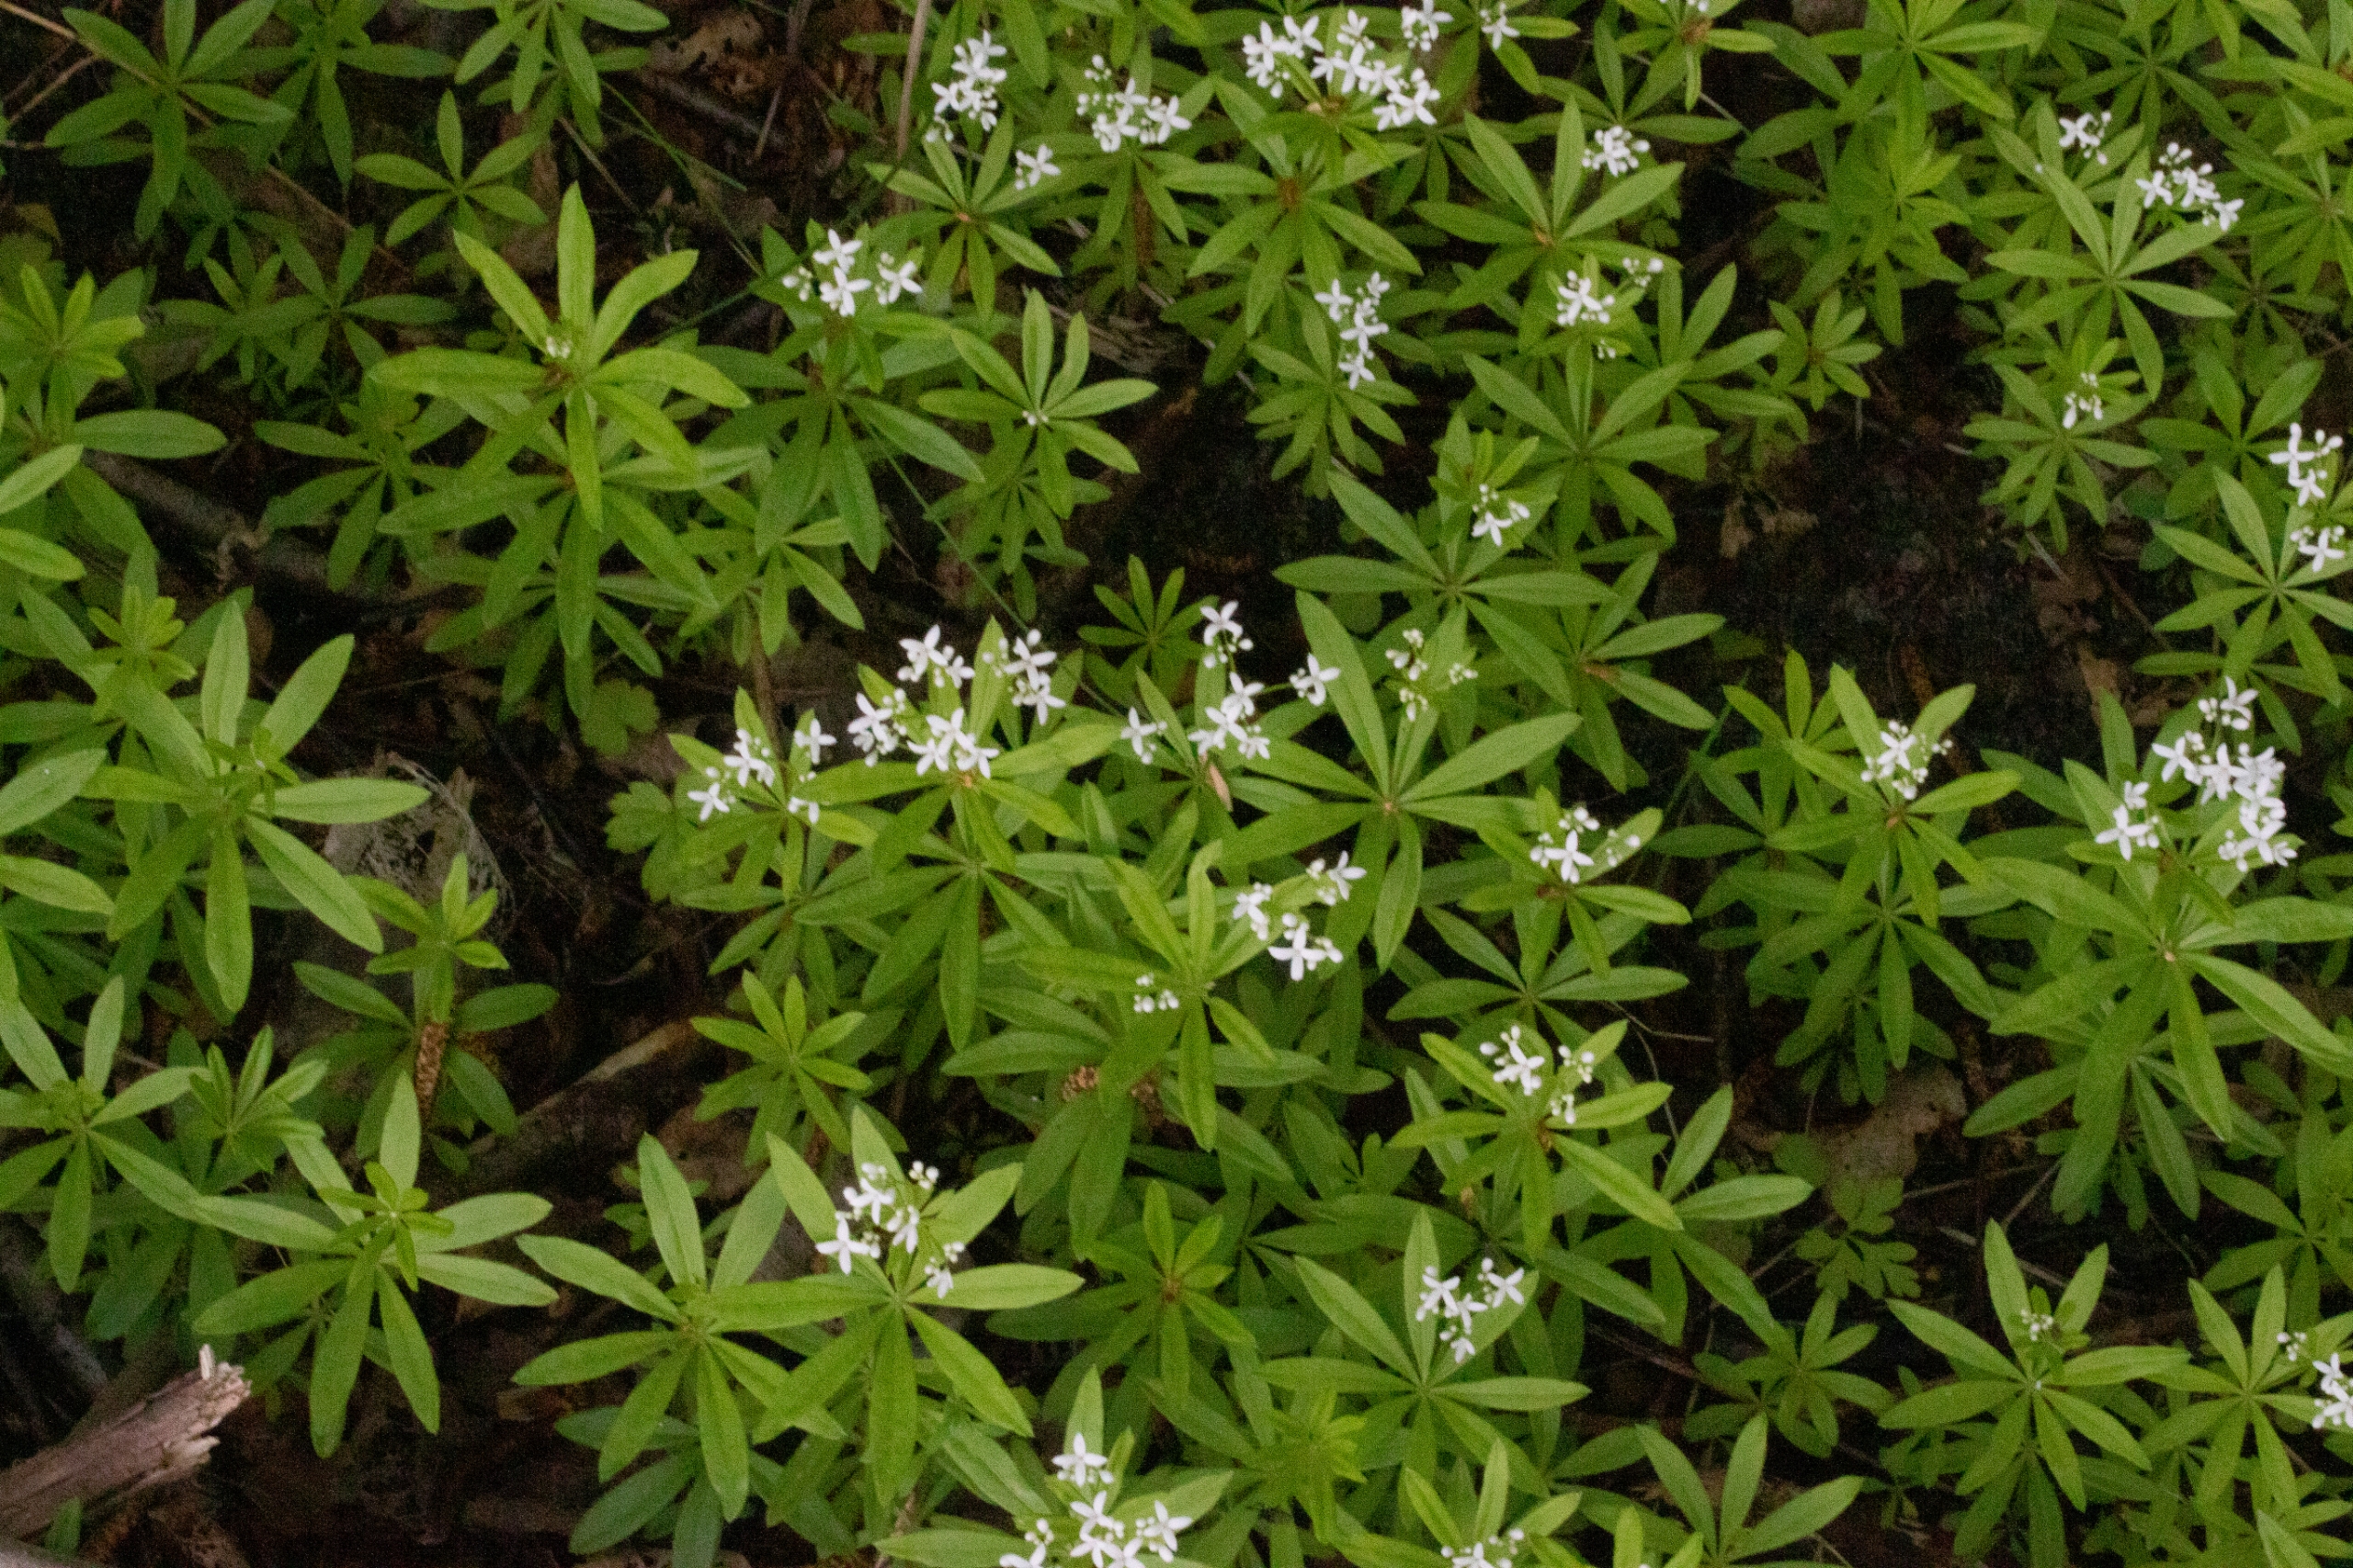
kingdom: Plantae
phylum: Tracheophyta
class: Magnoliopsida
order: Gentianales
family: Rubiaceae
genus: Galium
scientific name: Galium odoratum
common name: Skovmærke
